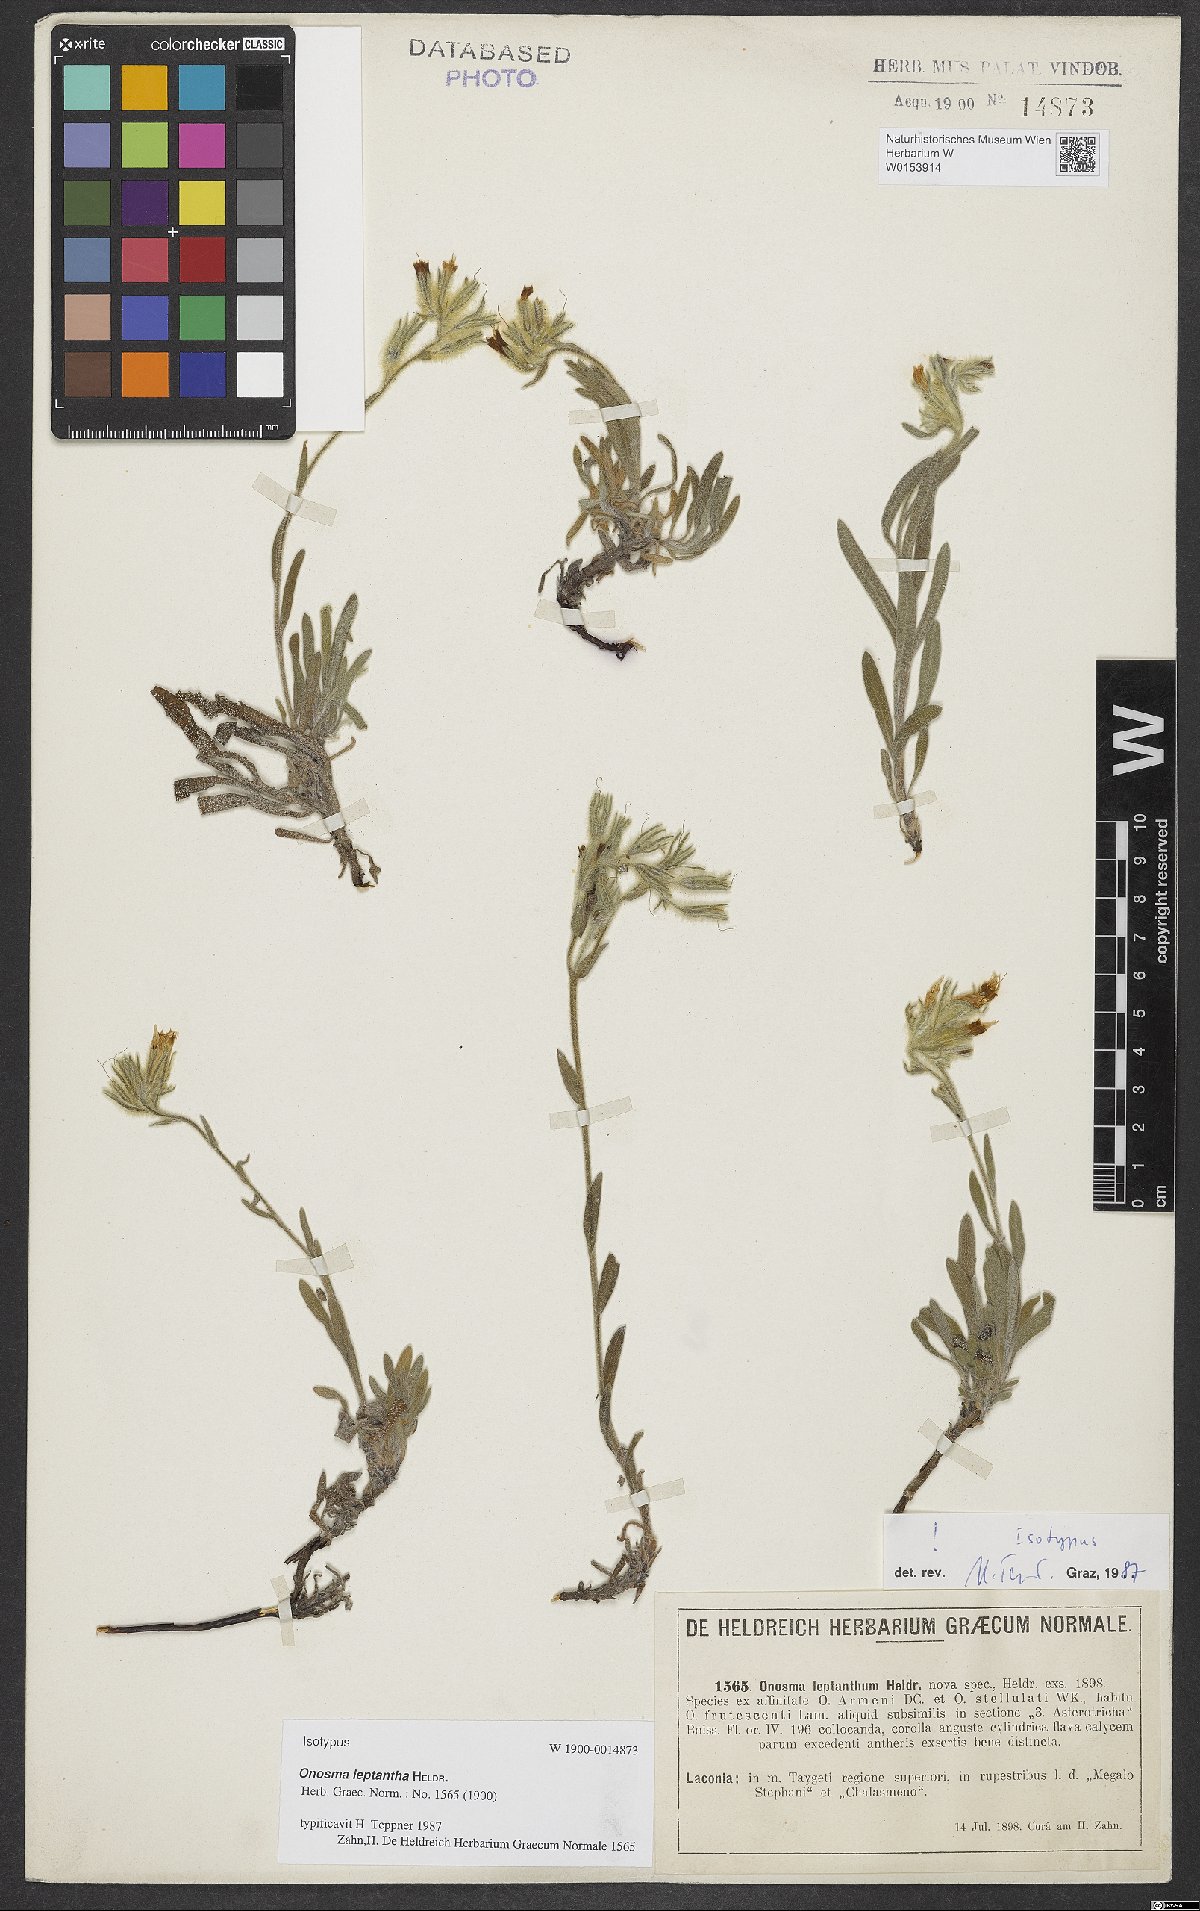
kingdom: Plantae
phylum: Tracheophyta
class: Magnoliopsida
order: Boraginales
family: Boraginaceae
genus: Onosma
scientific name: Onosma leptantha
